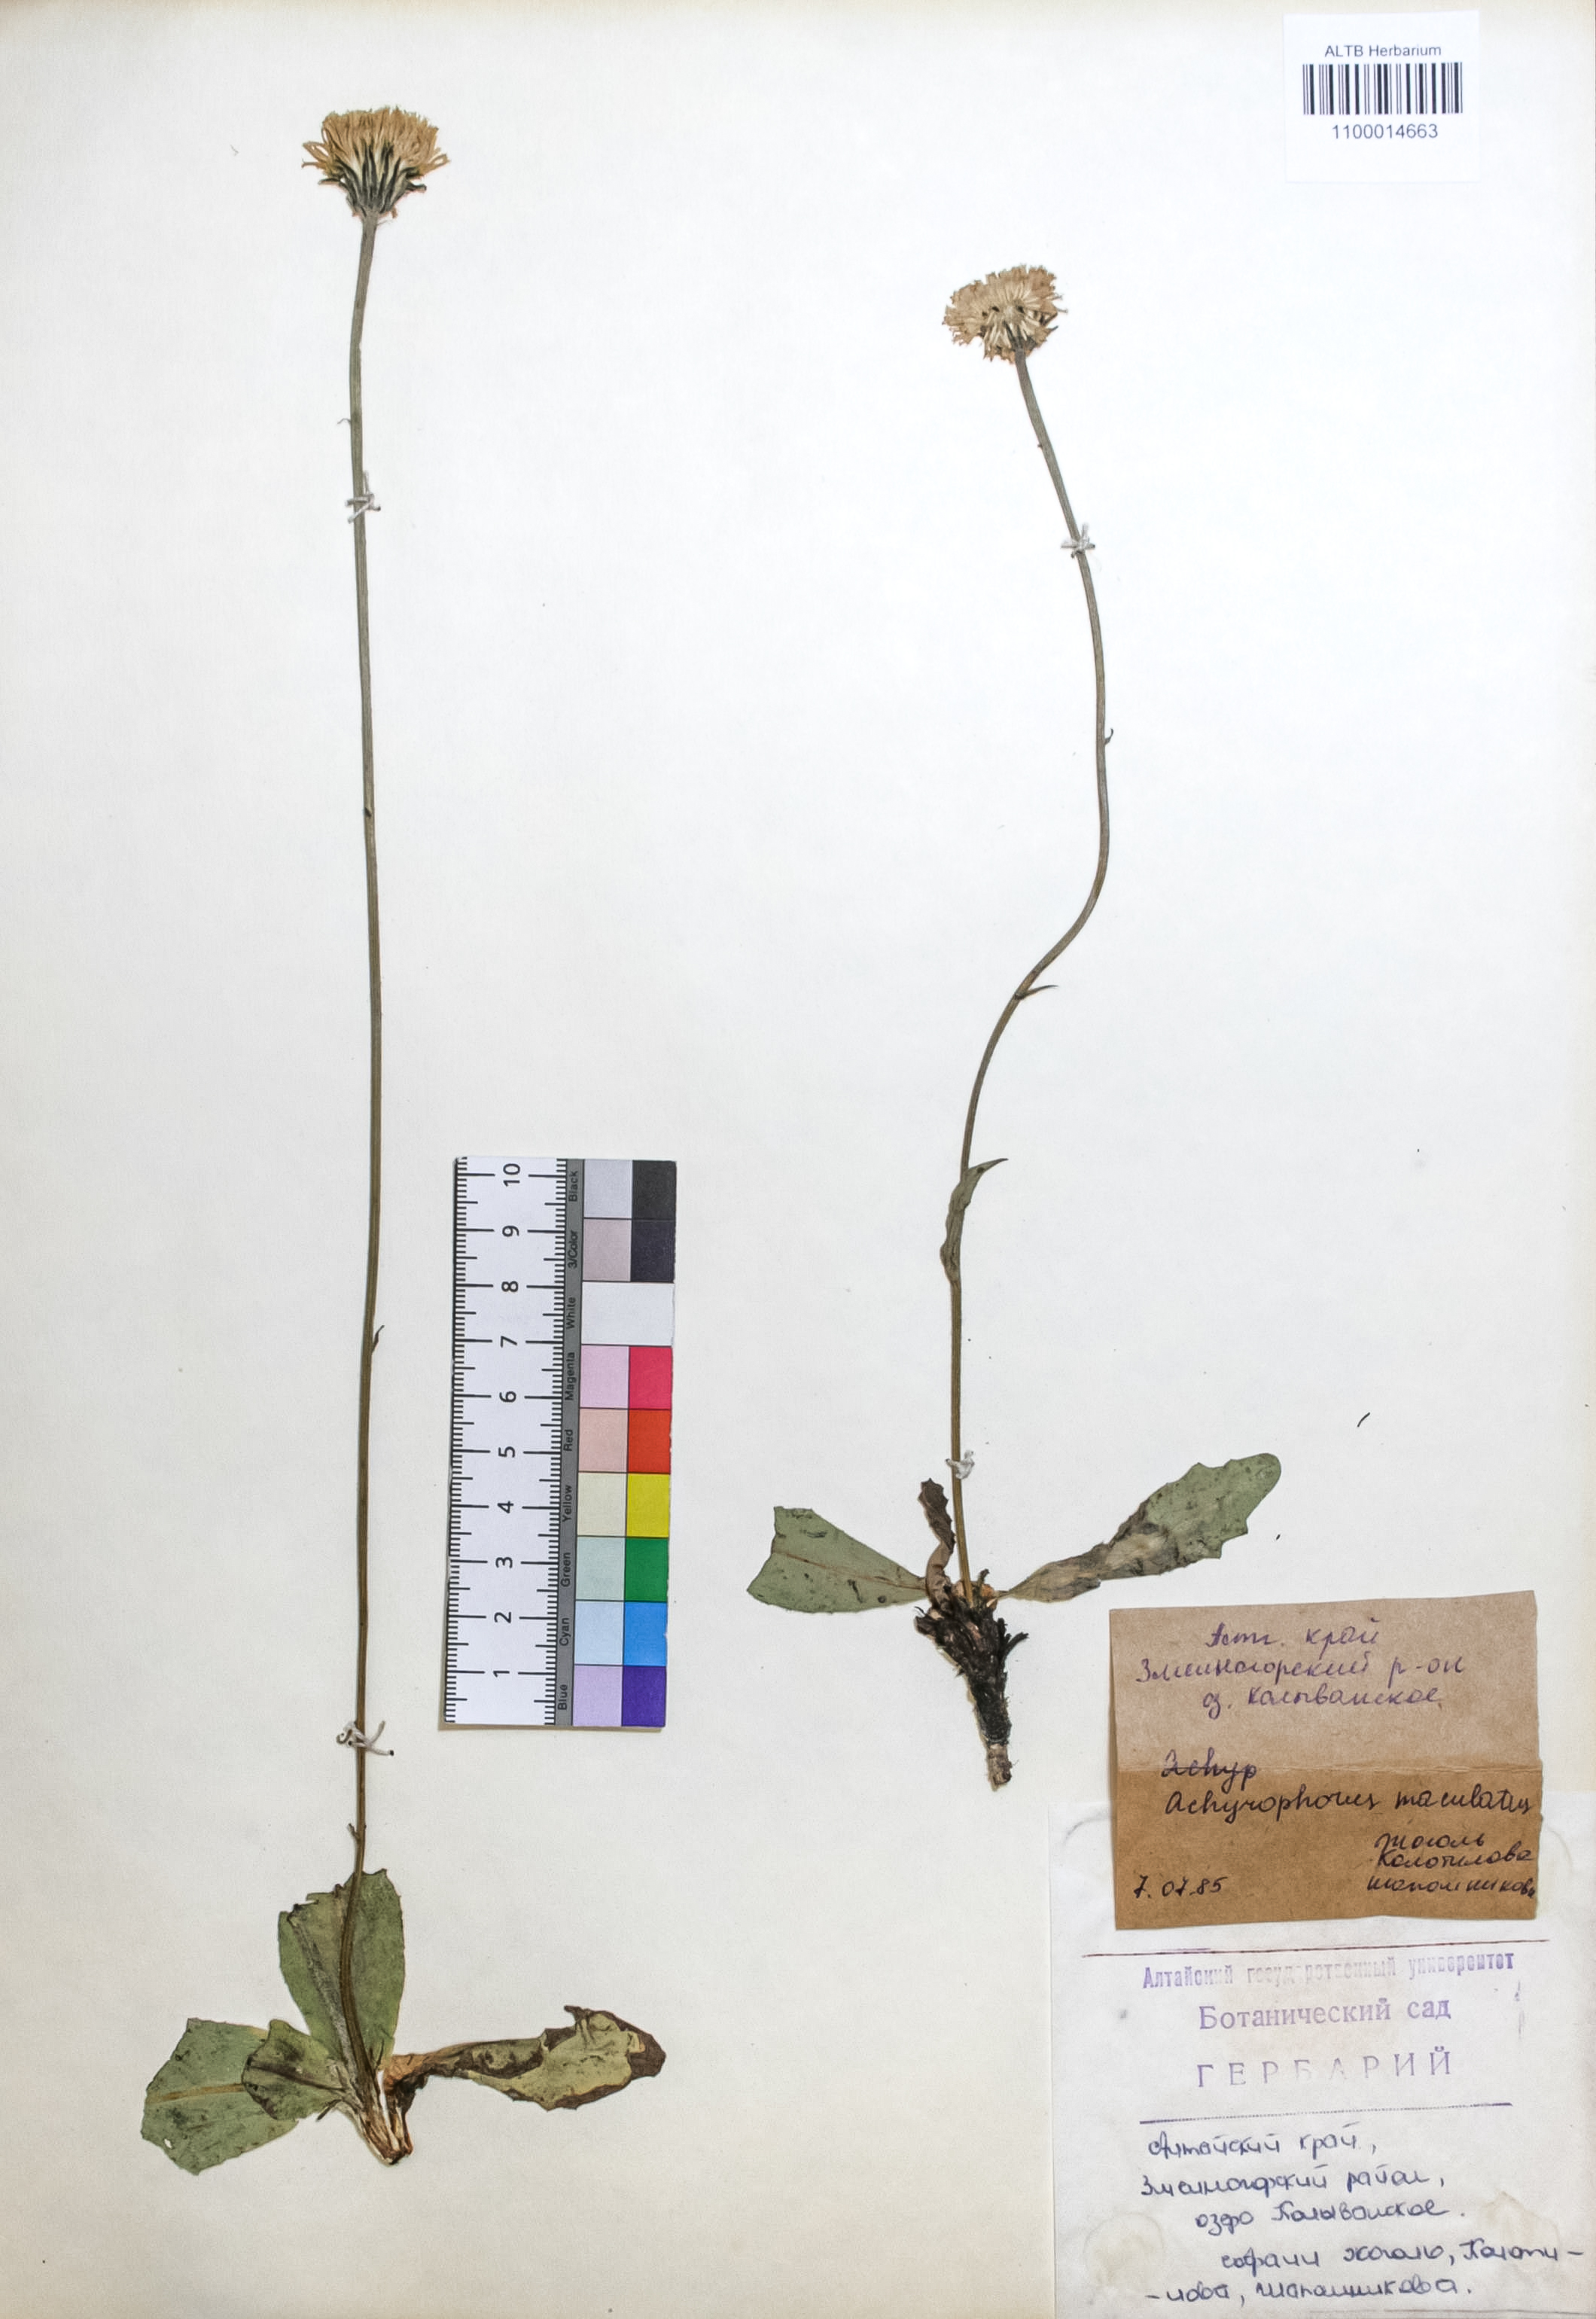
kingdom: Plantae
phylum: Tracheophyta
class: Magnoliopsida
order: Asterales
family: Asteraceae
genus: Trommsdorffia
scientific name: Trommsdorffia maculata
